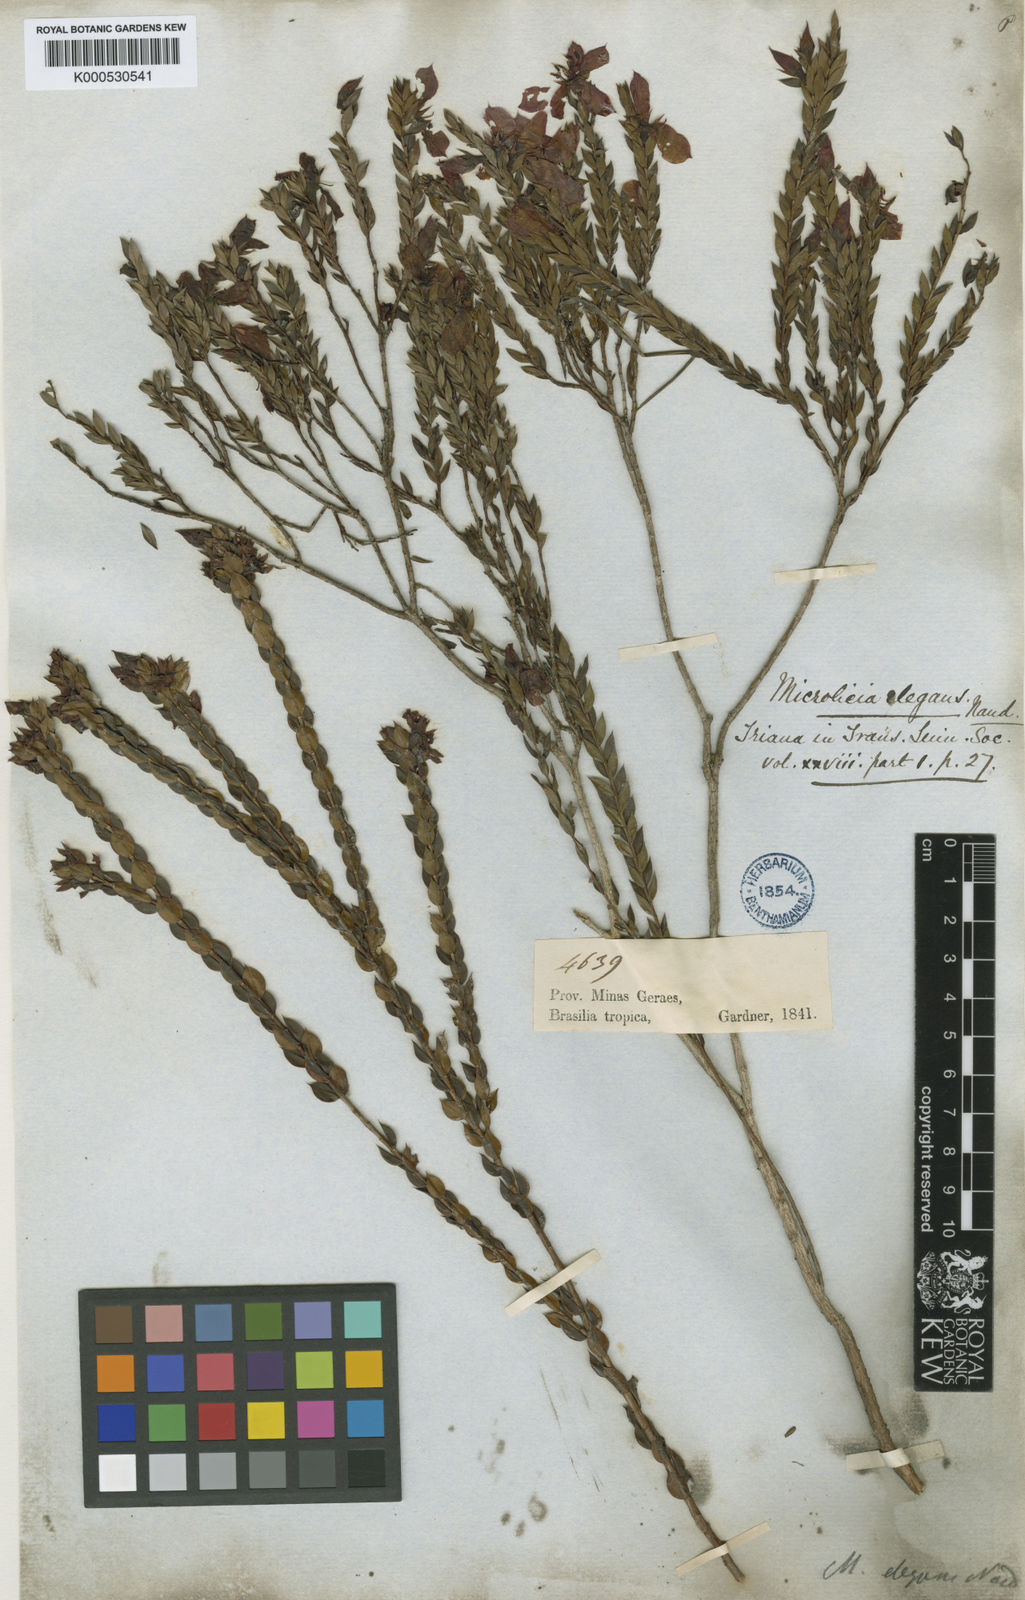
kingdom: Plantae
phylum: Tracheophyta
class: Magnoliopsida
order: Myrtales
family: Melastomataceae
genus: Microlicia
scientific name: Microlicia elegans
